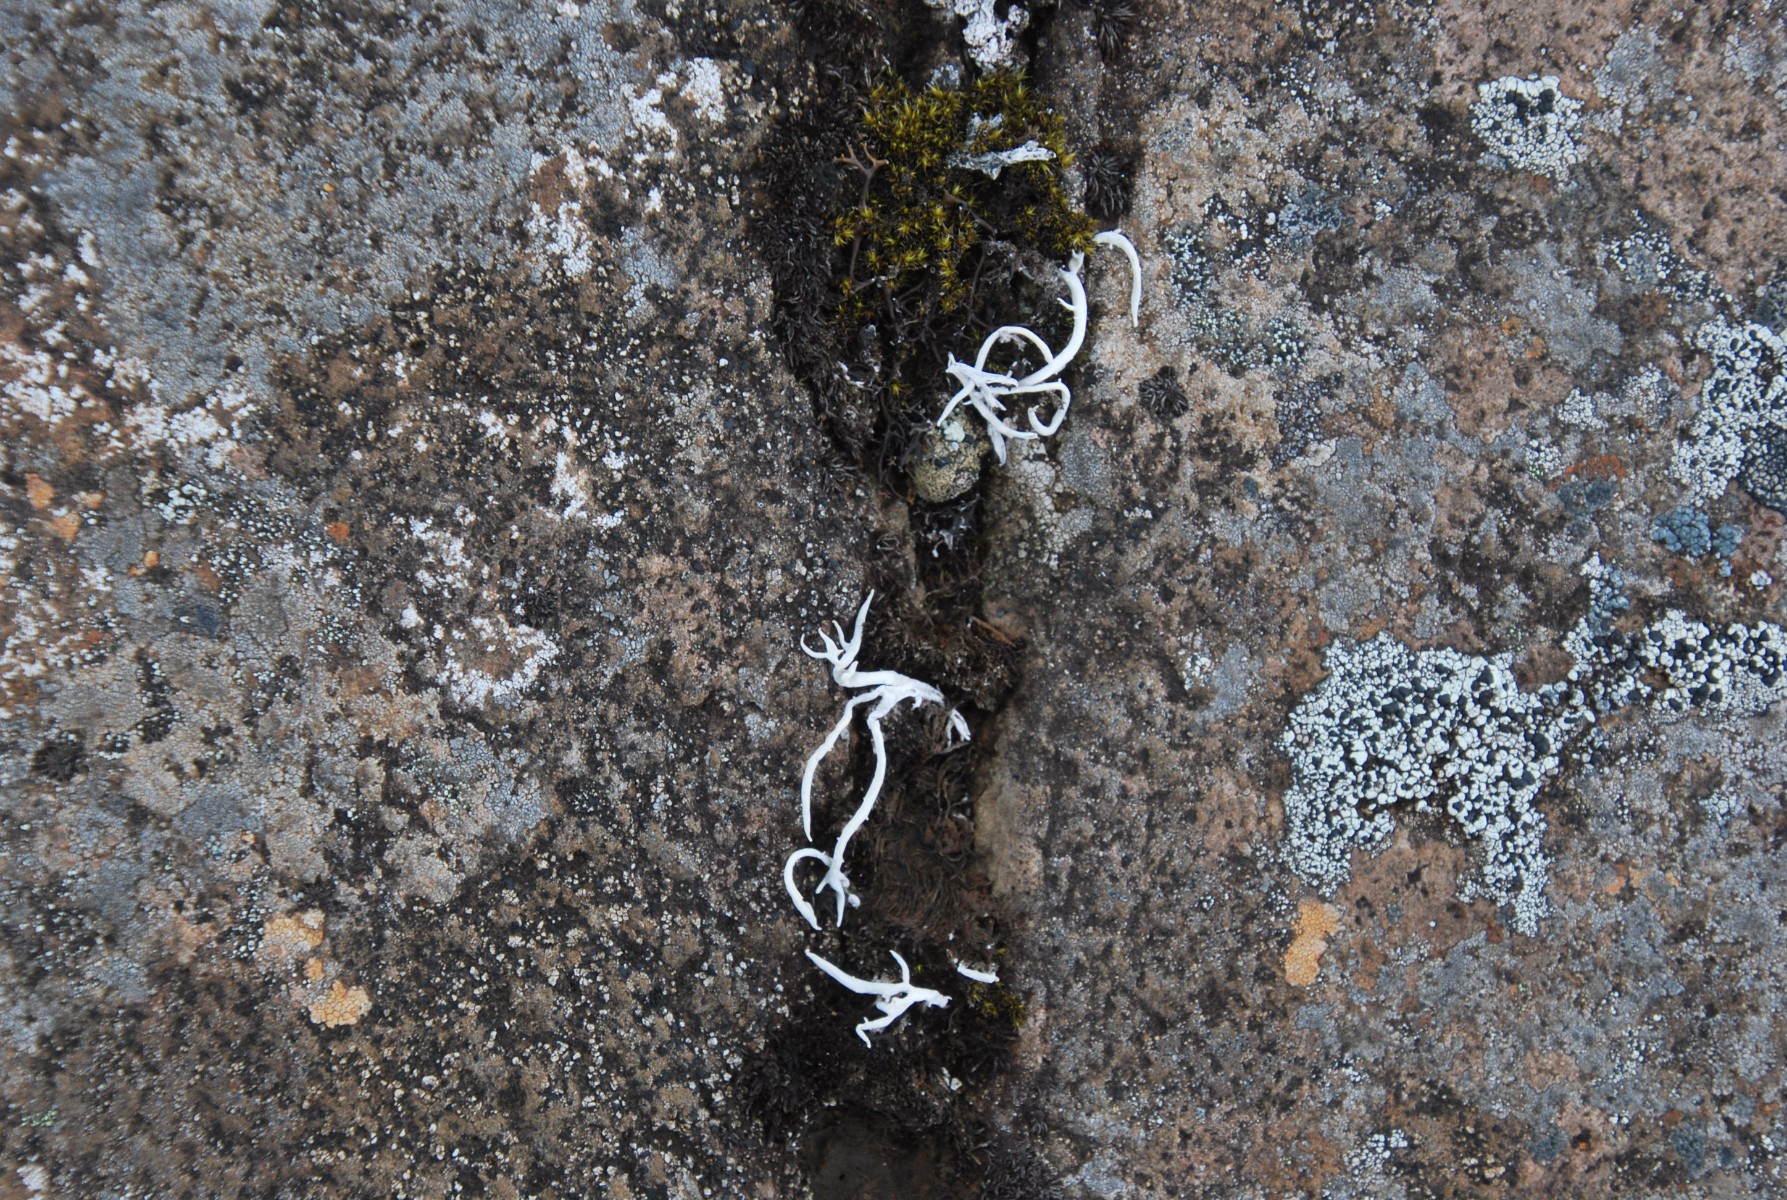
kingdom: Fungi
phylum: Ascomycota
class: Lecanoromycetes
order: Pertusariales
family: Icmadophilaceae
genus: Thamnolia
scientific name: Thamnolia vermicularis
